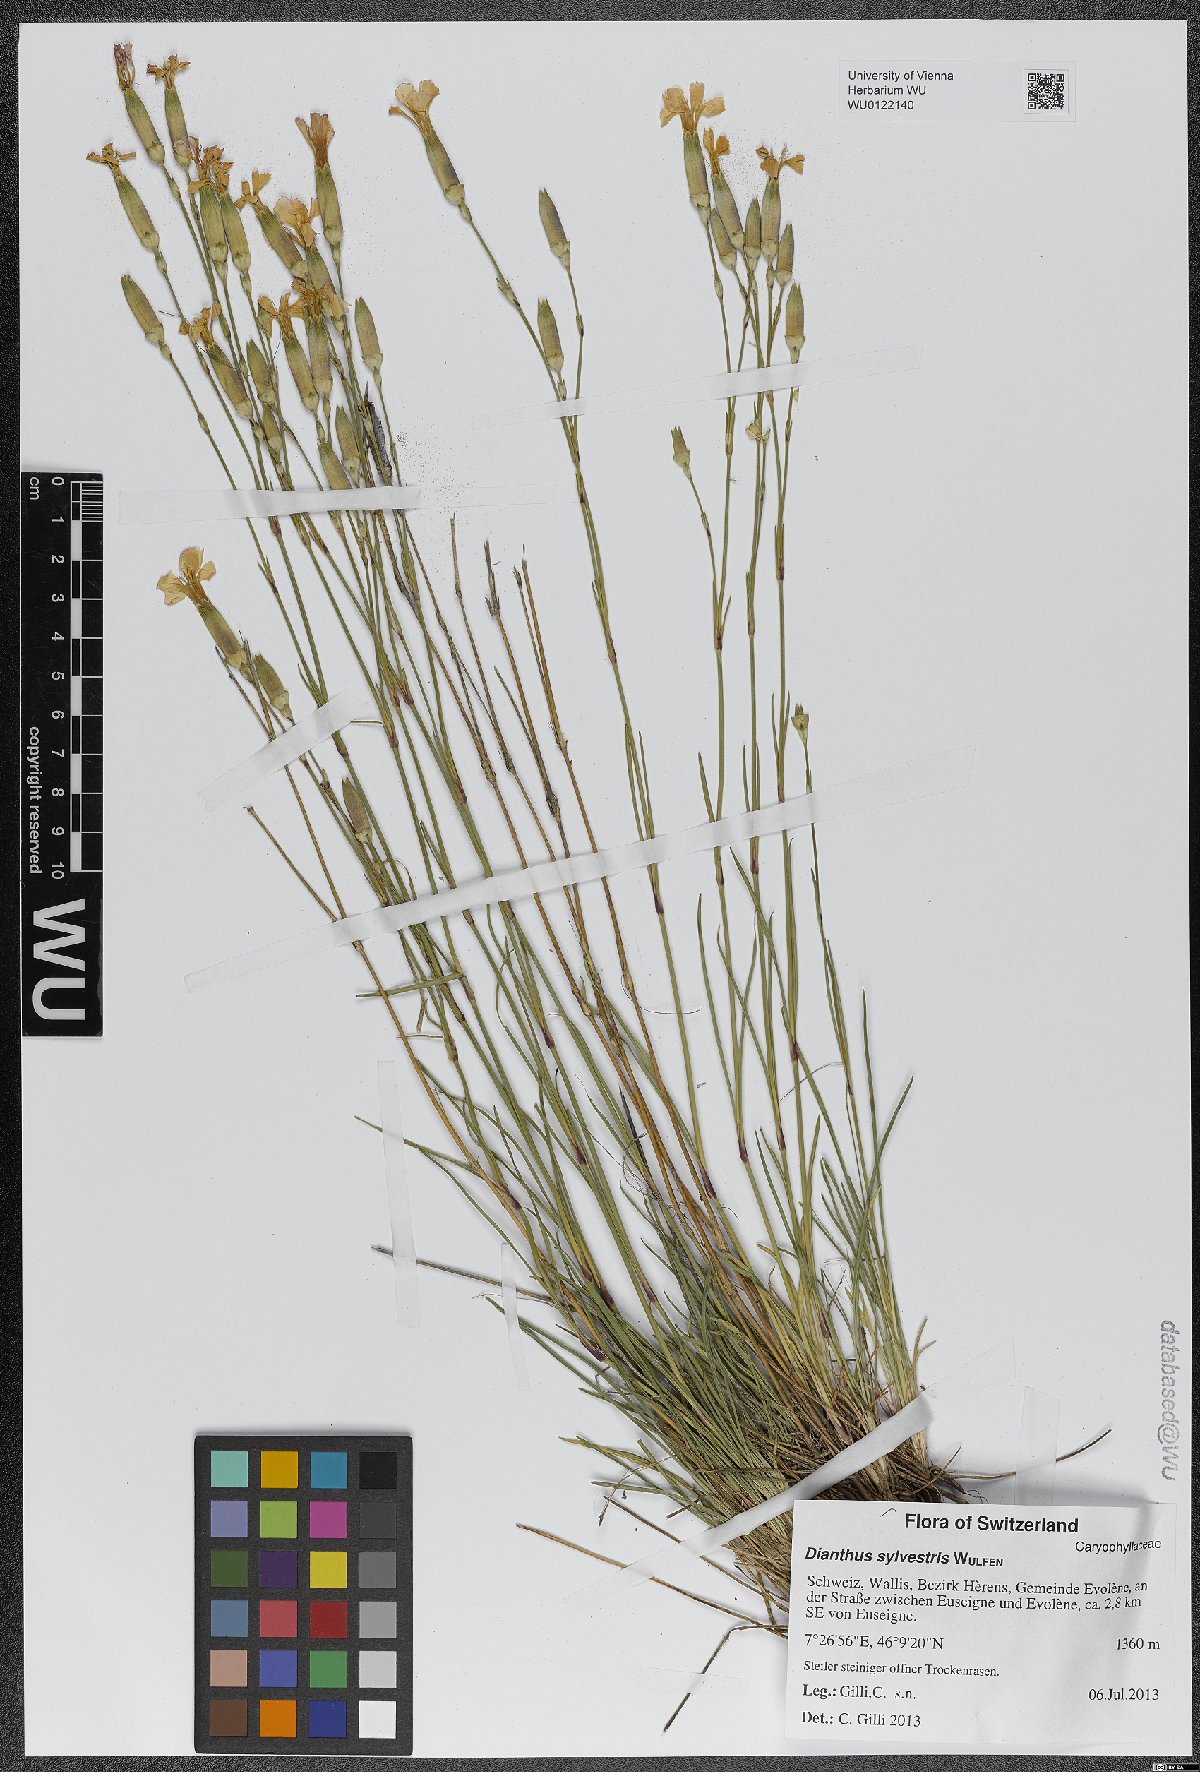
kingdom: Plantae
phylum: Tracheophyta
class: Magnoliopsida
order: Caryophyllales
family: Caryophyllaceae
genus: Dianthus
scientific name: Dianthus sylvestris
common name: Wood pink
